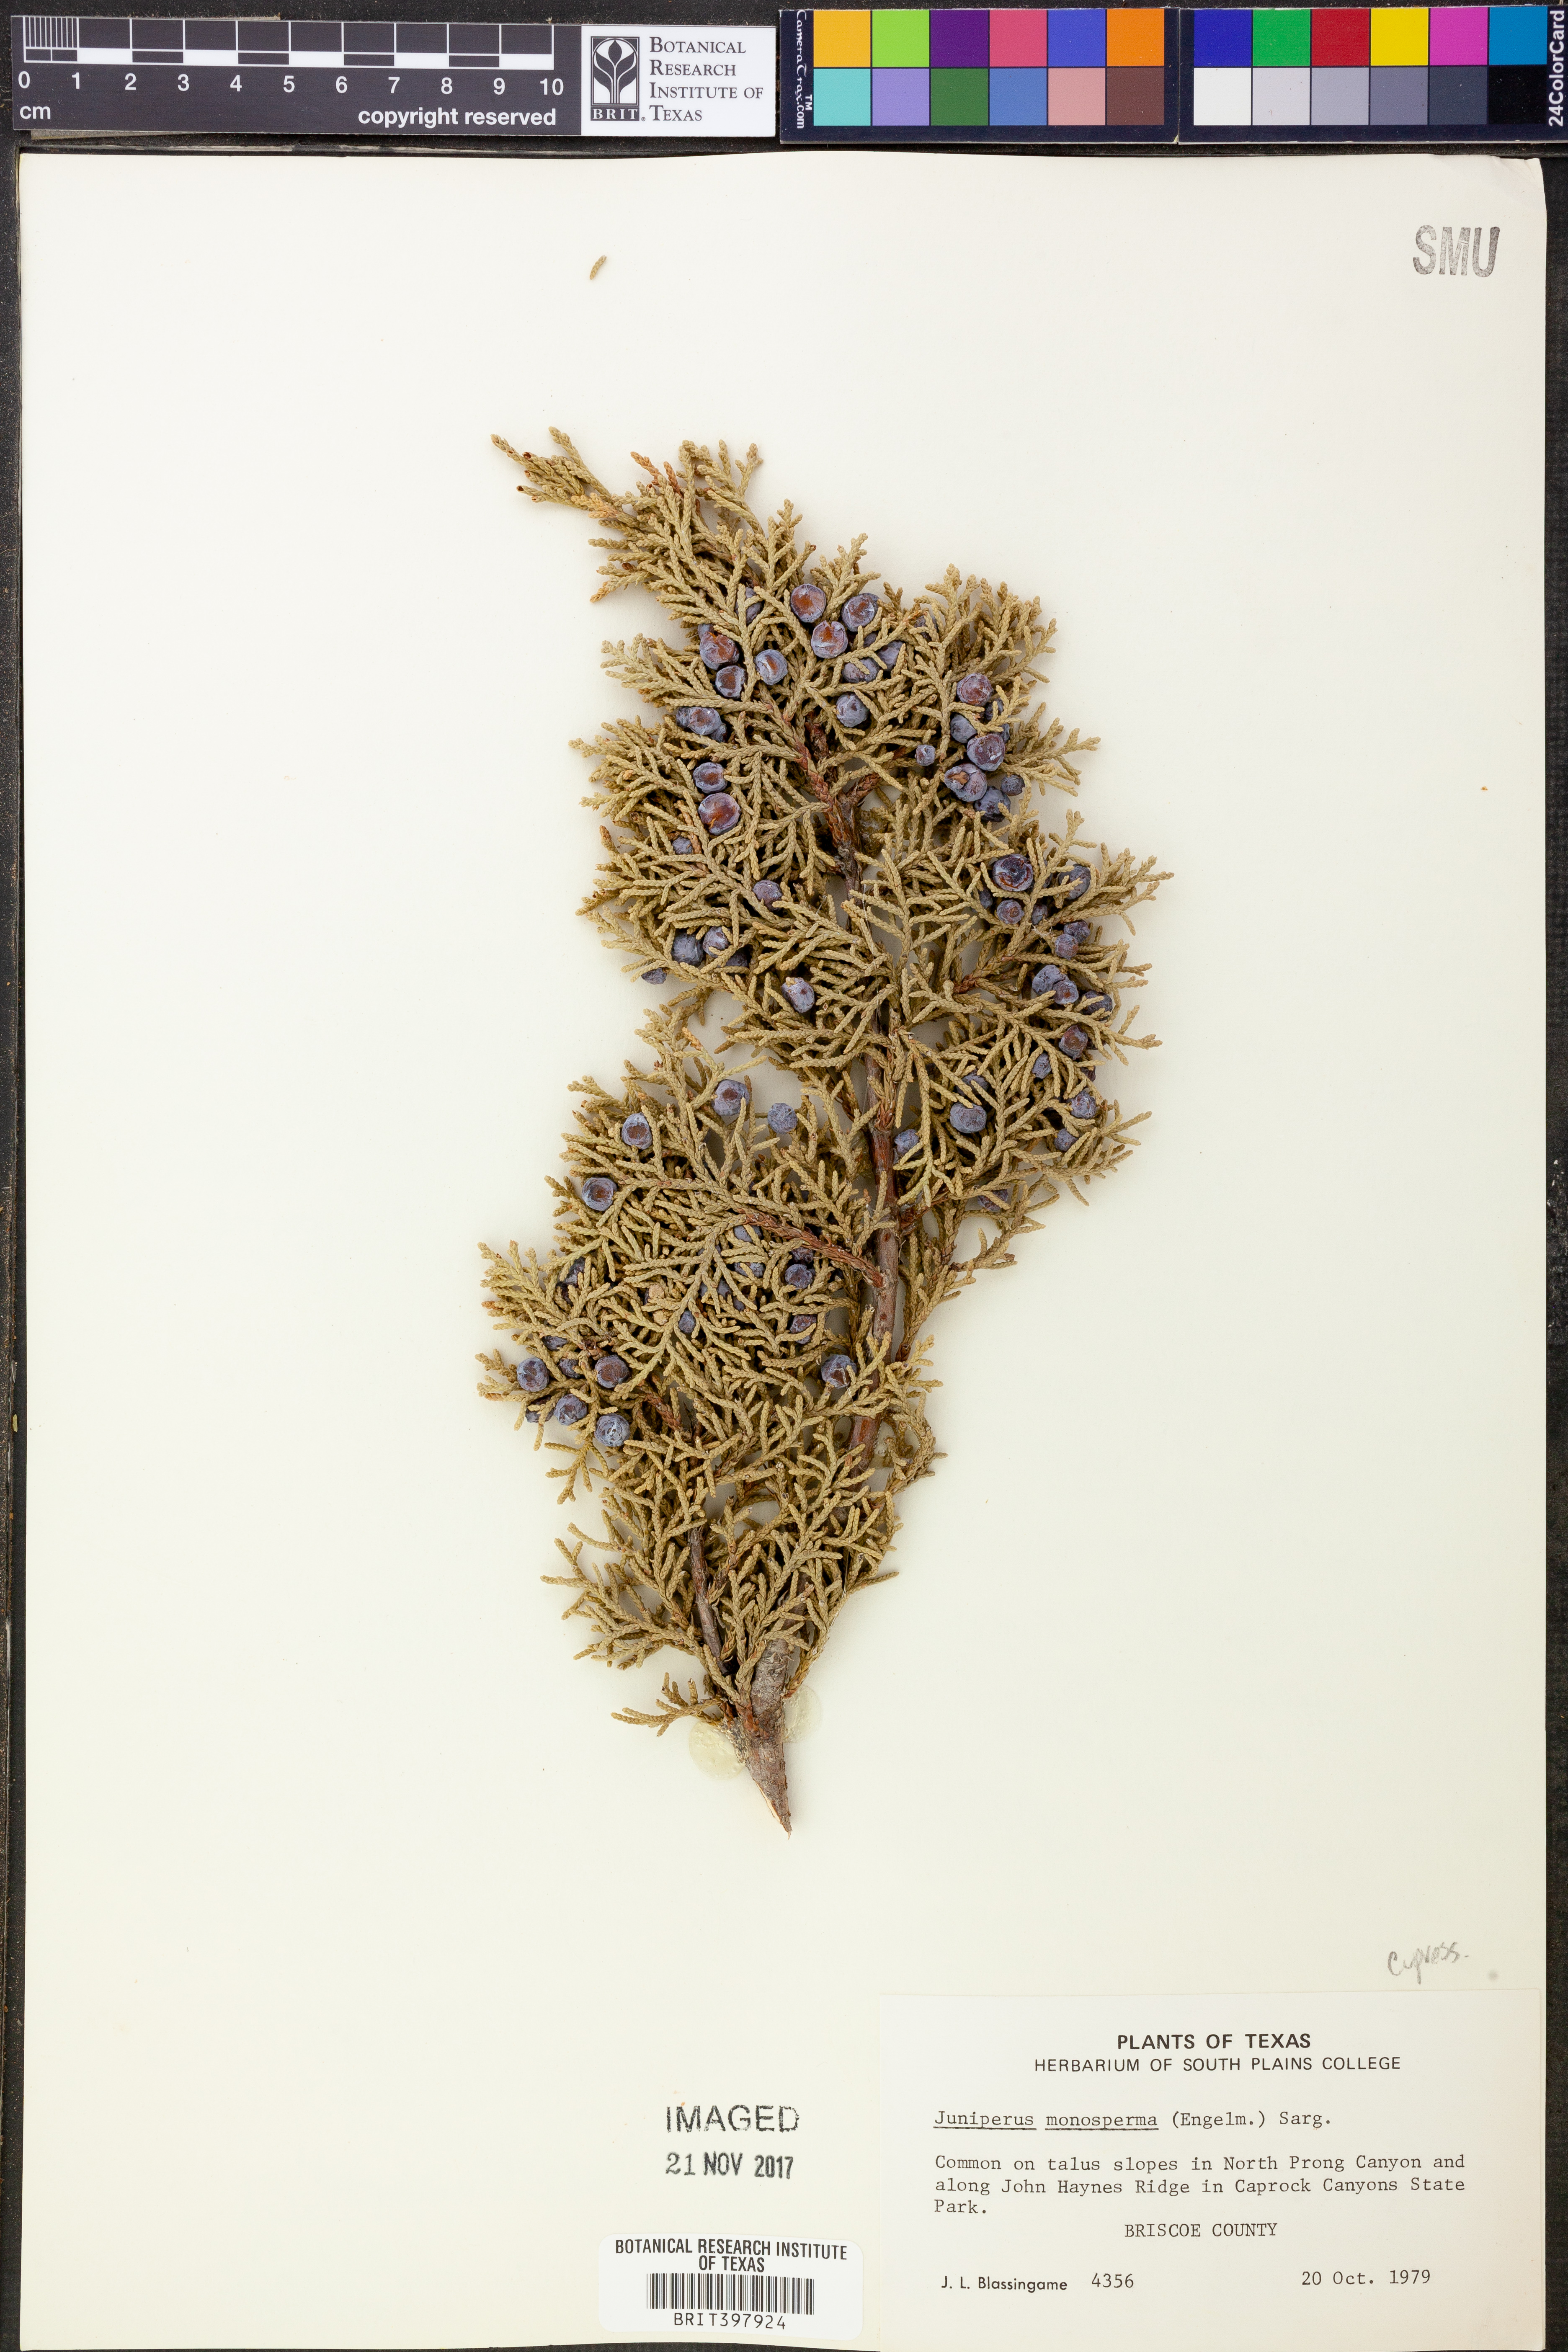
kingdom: Plantae
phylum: Tracheophyta
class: Pinopsida
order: Pinales
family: Cupressaceae
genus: Juniperus
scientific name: Juniperus monosperma
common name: One-seed juniper
